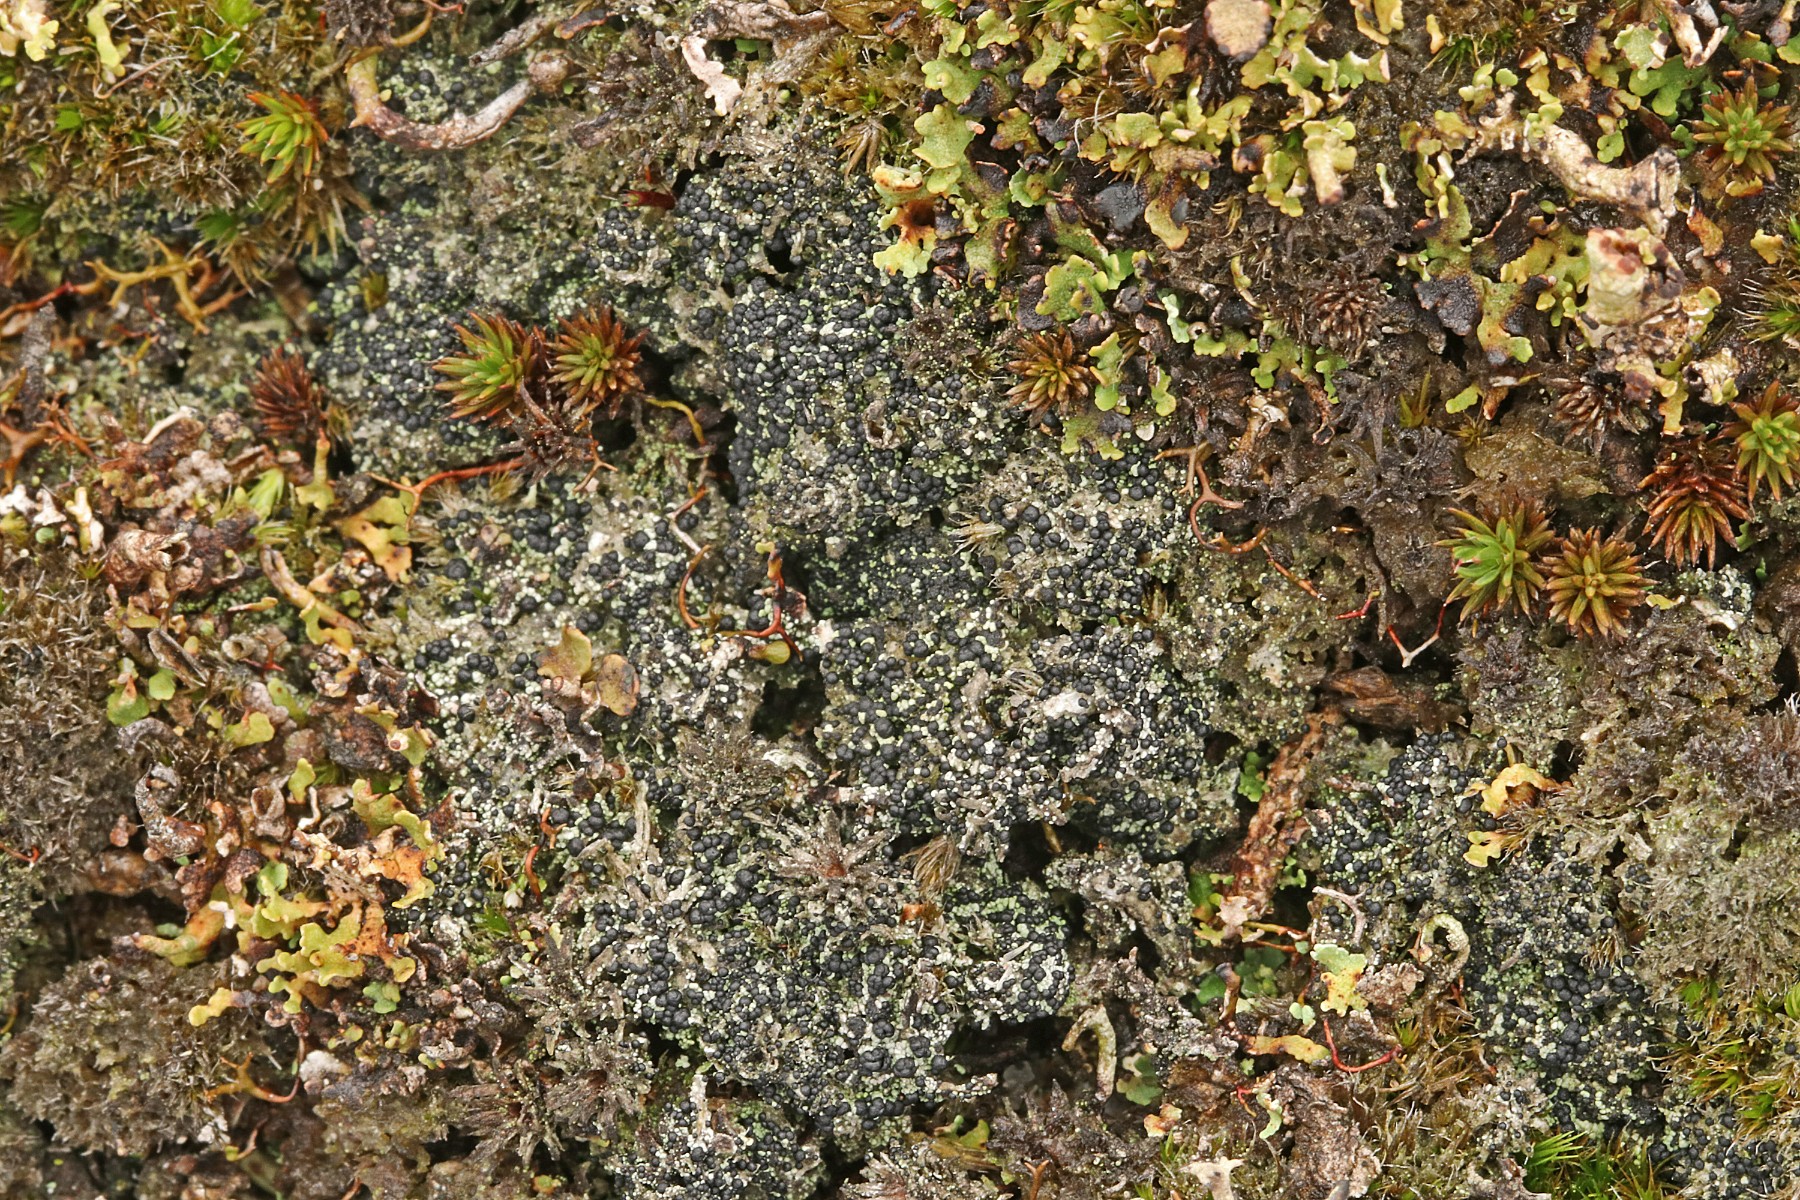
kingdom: Fungi
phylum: Ascomycota
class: Lecanoromycetes
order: Lecanorales
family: Byssolomataceae
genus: Micarea
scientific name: Micarea lignaria
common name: tørve-knaplav
